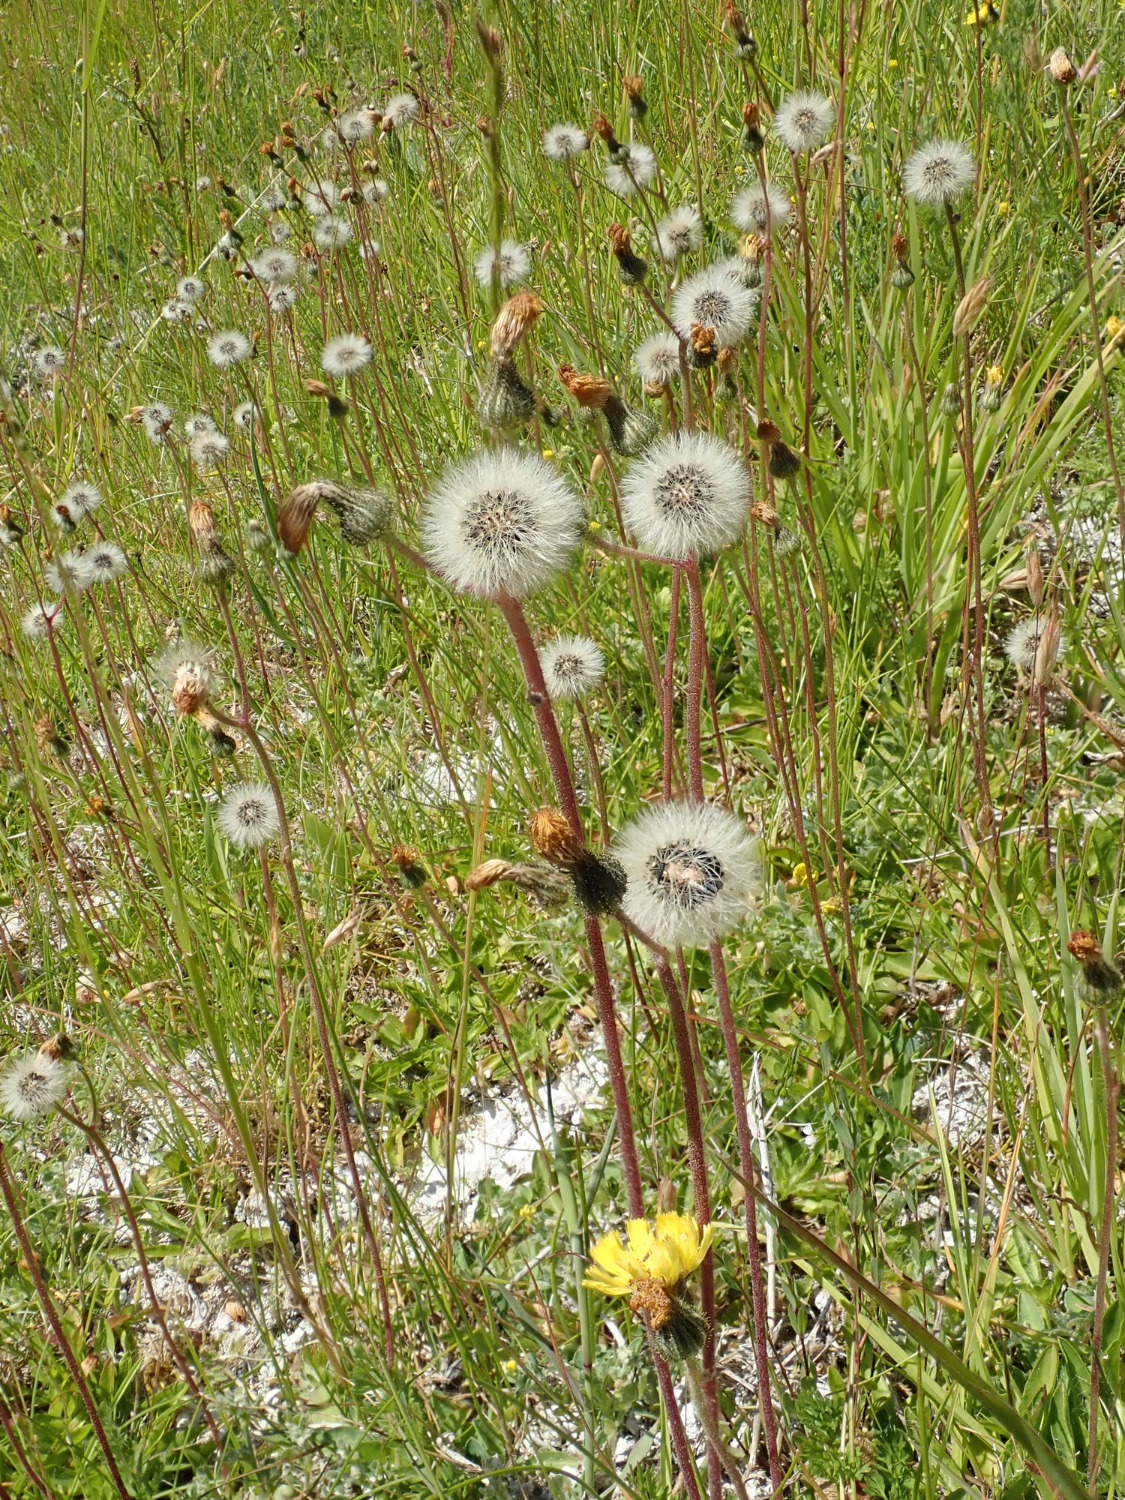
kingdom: Plantae
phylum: Tracheophyta
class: Magnoliopsida
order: Asterales
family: Asteraceae
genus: Pilosella
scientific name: Pilosella lactucella
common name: Lancetbladet høgeurt
